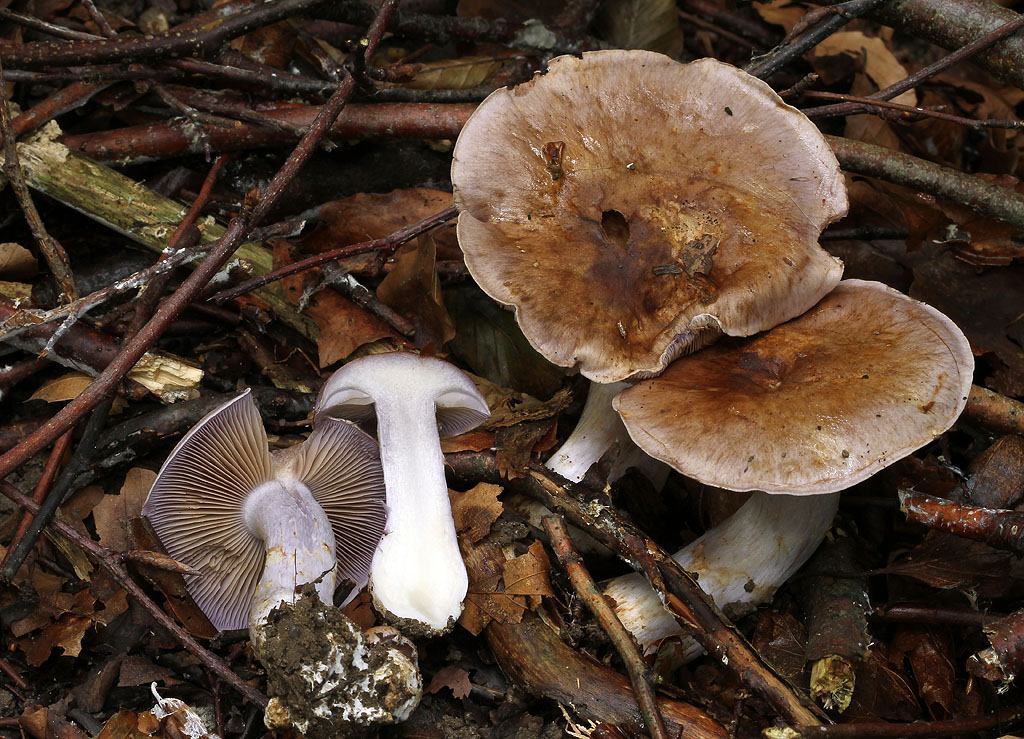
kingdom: Fungi
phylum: Basidiomycota
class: Agaricomycetes
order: Agaricales
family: Cortinariaceae
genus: Cortinarius
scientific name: Cortinarius largus
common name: violetrandet slørhat
